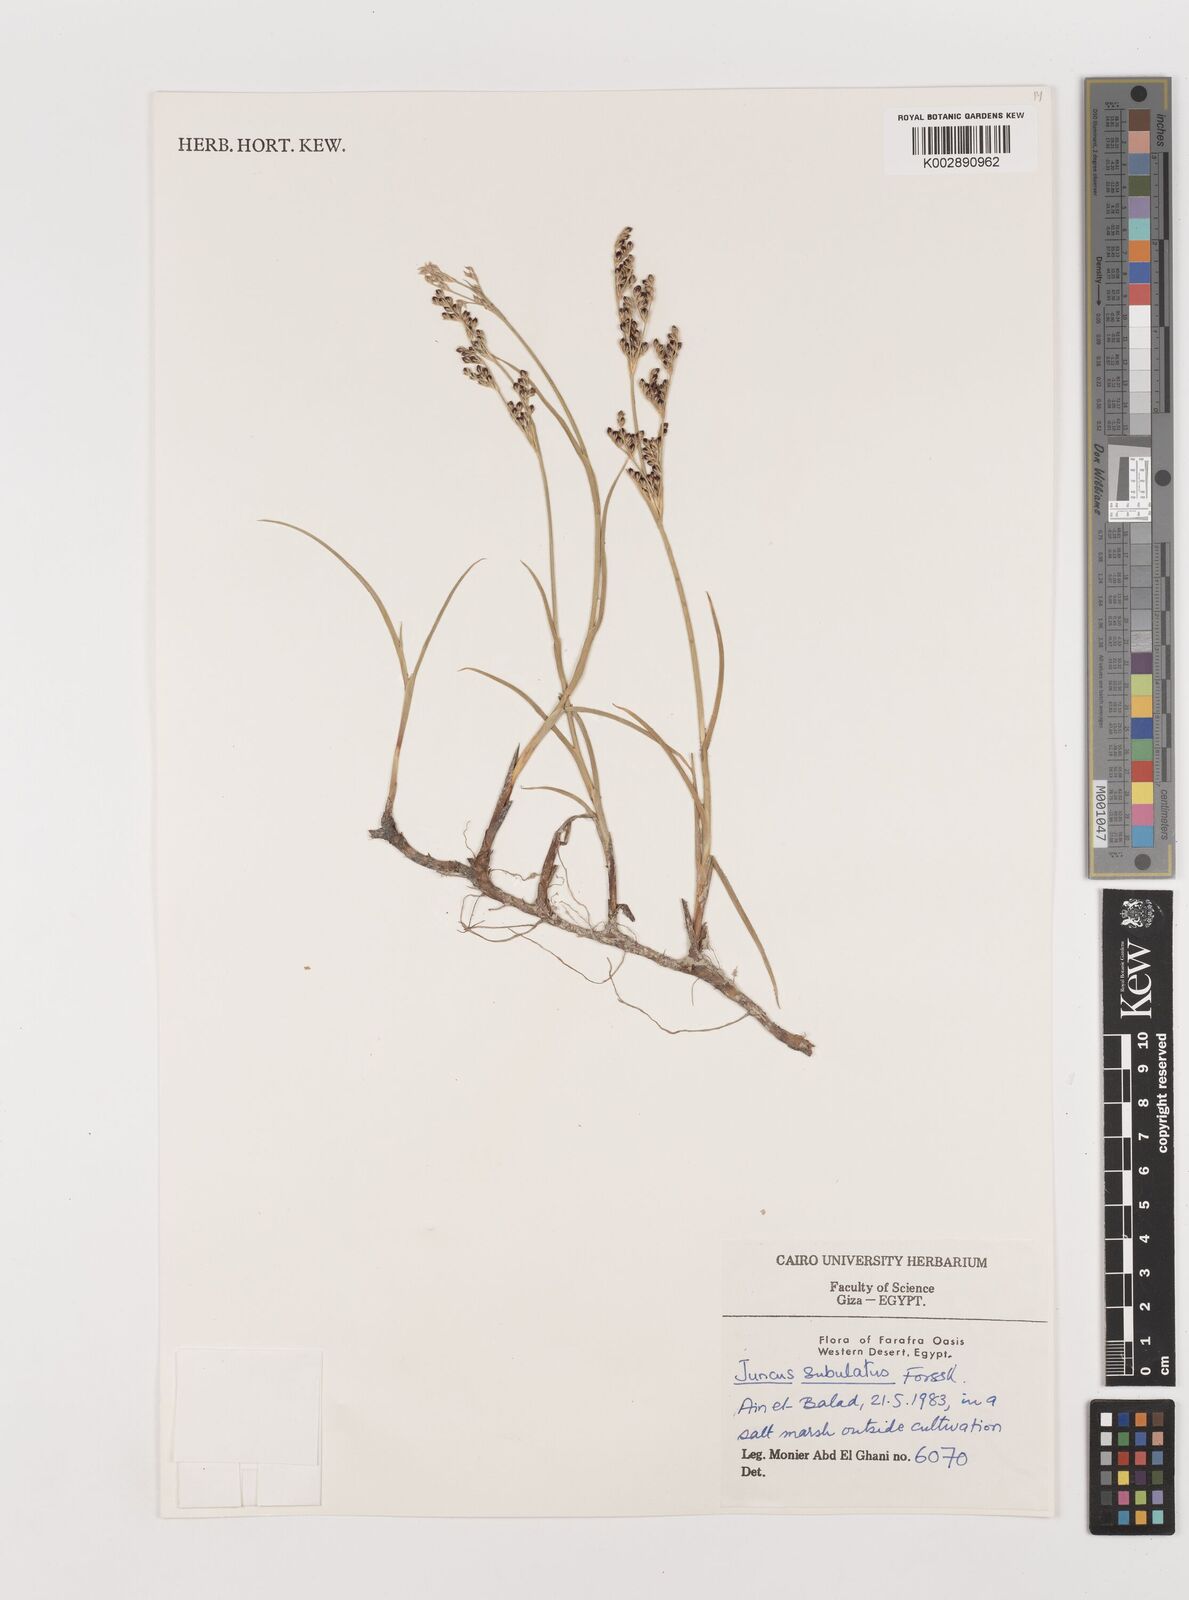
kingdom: Plantae
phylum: Tracheophyta
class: Liliopsida
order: Poales
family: Juncaceae
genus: Juncus
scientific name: Juncus subulatus
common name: Somerset rush
